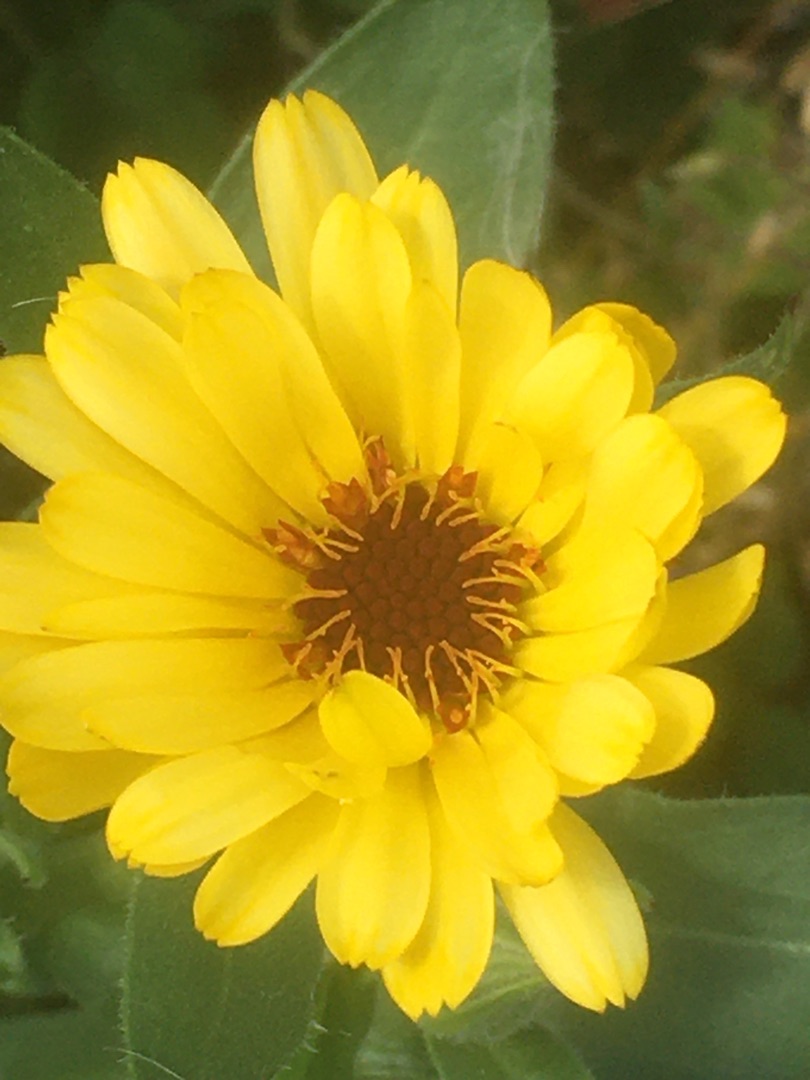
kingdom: Plantae
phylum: Tracheophyta
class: Magnoliopsida
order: Asterales
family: Asteraceae
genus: Calendula
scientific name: Calendula officinalis
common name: Have-morgenfrue
